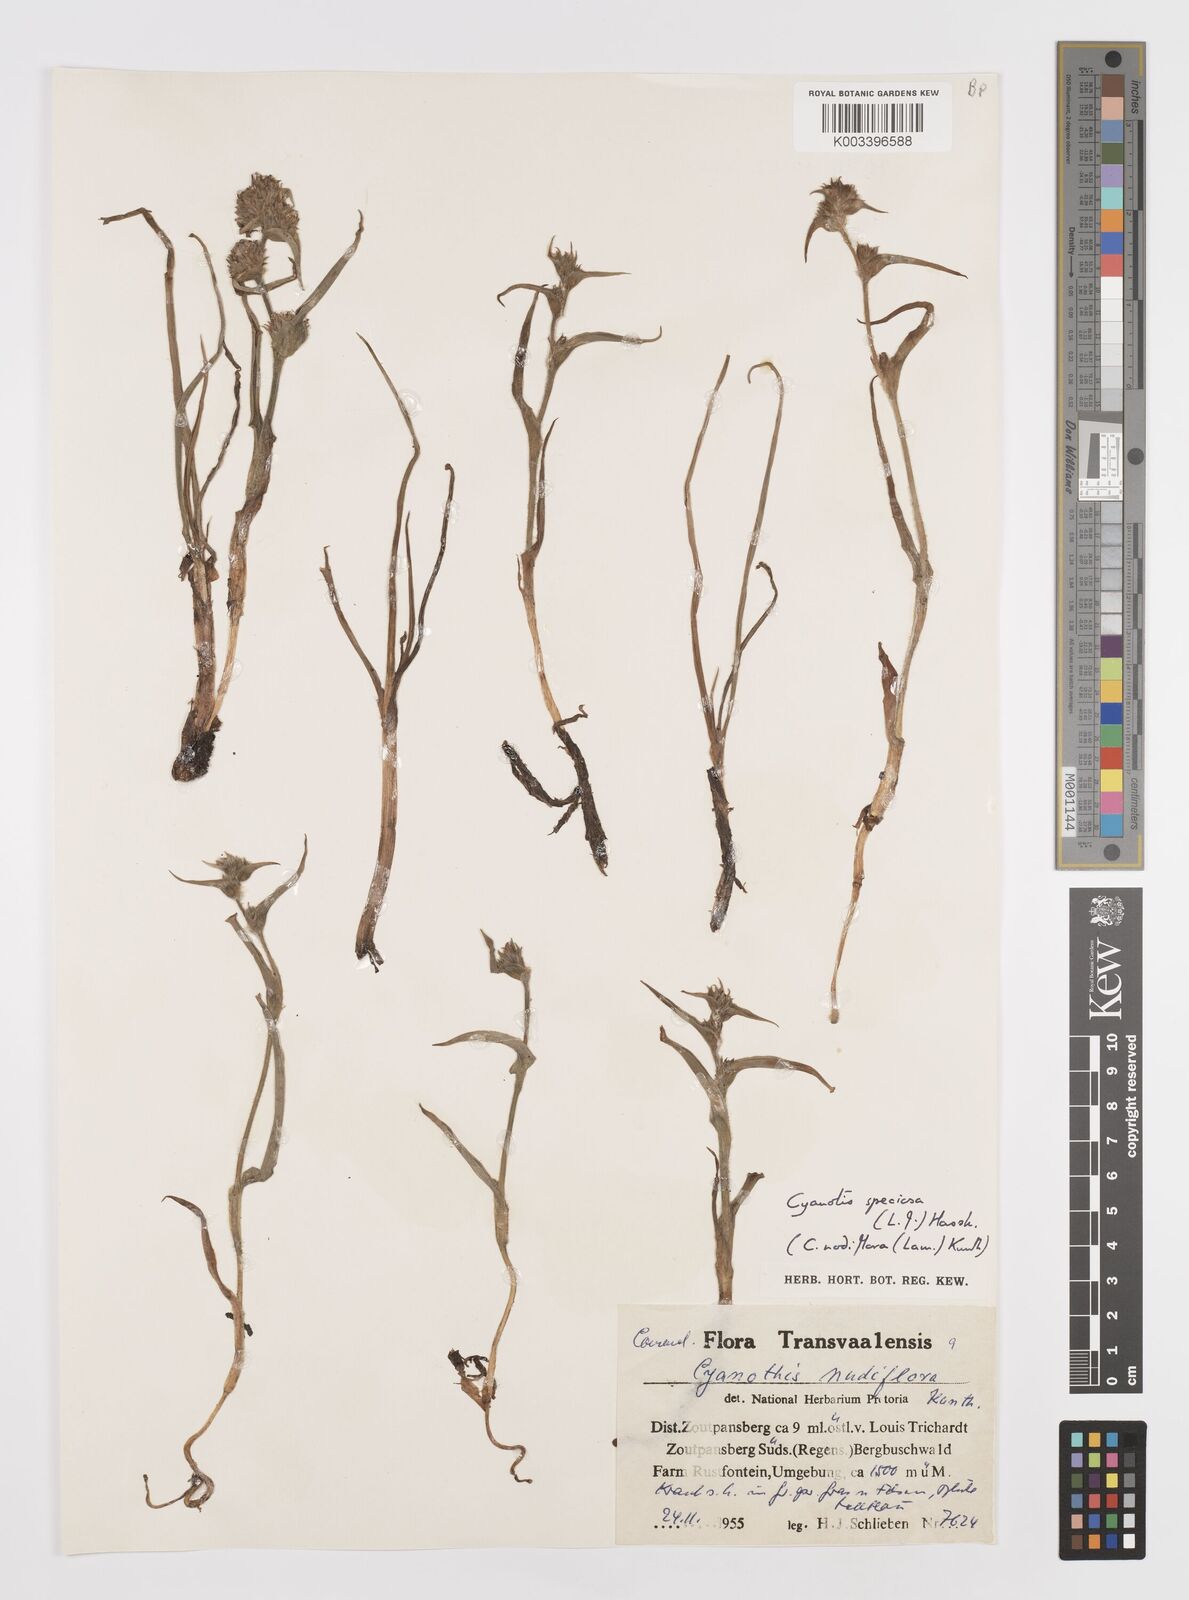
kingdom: Plantae
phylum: Tracheophyta
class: Liliopsida
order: Commelinales
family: Commelinaceae
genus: Cyanotis
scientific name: Cyanotis speciosa
